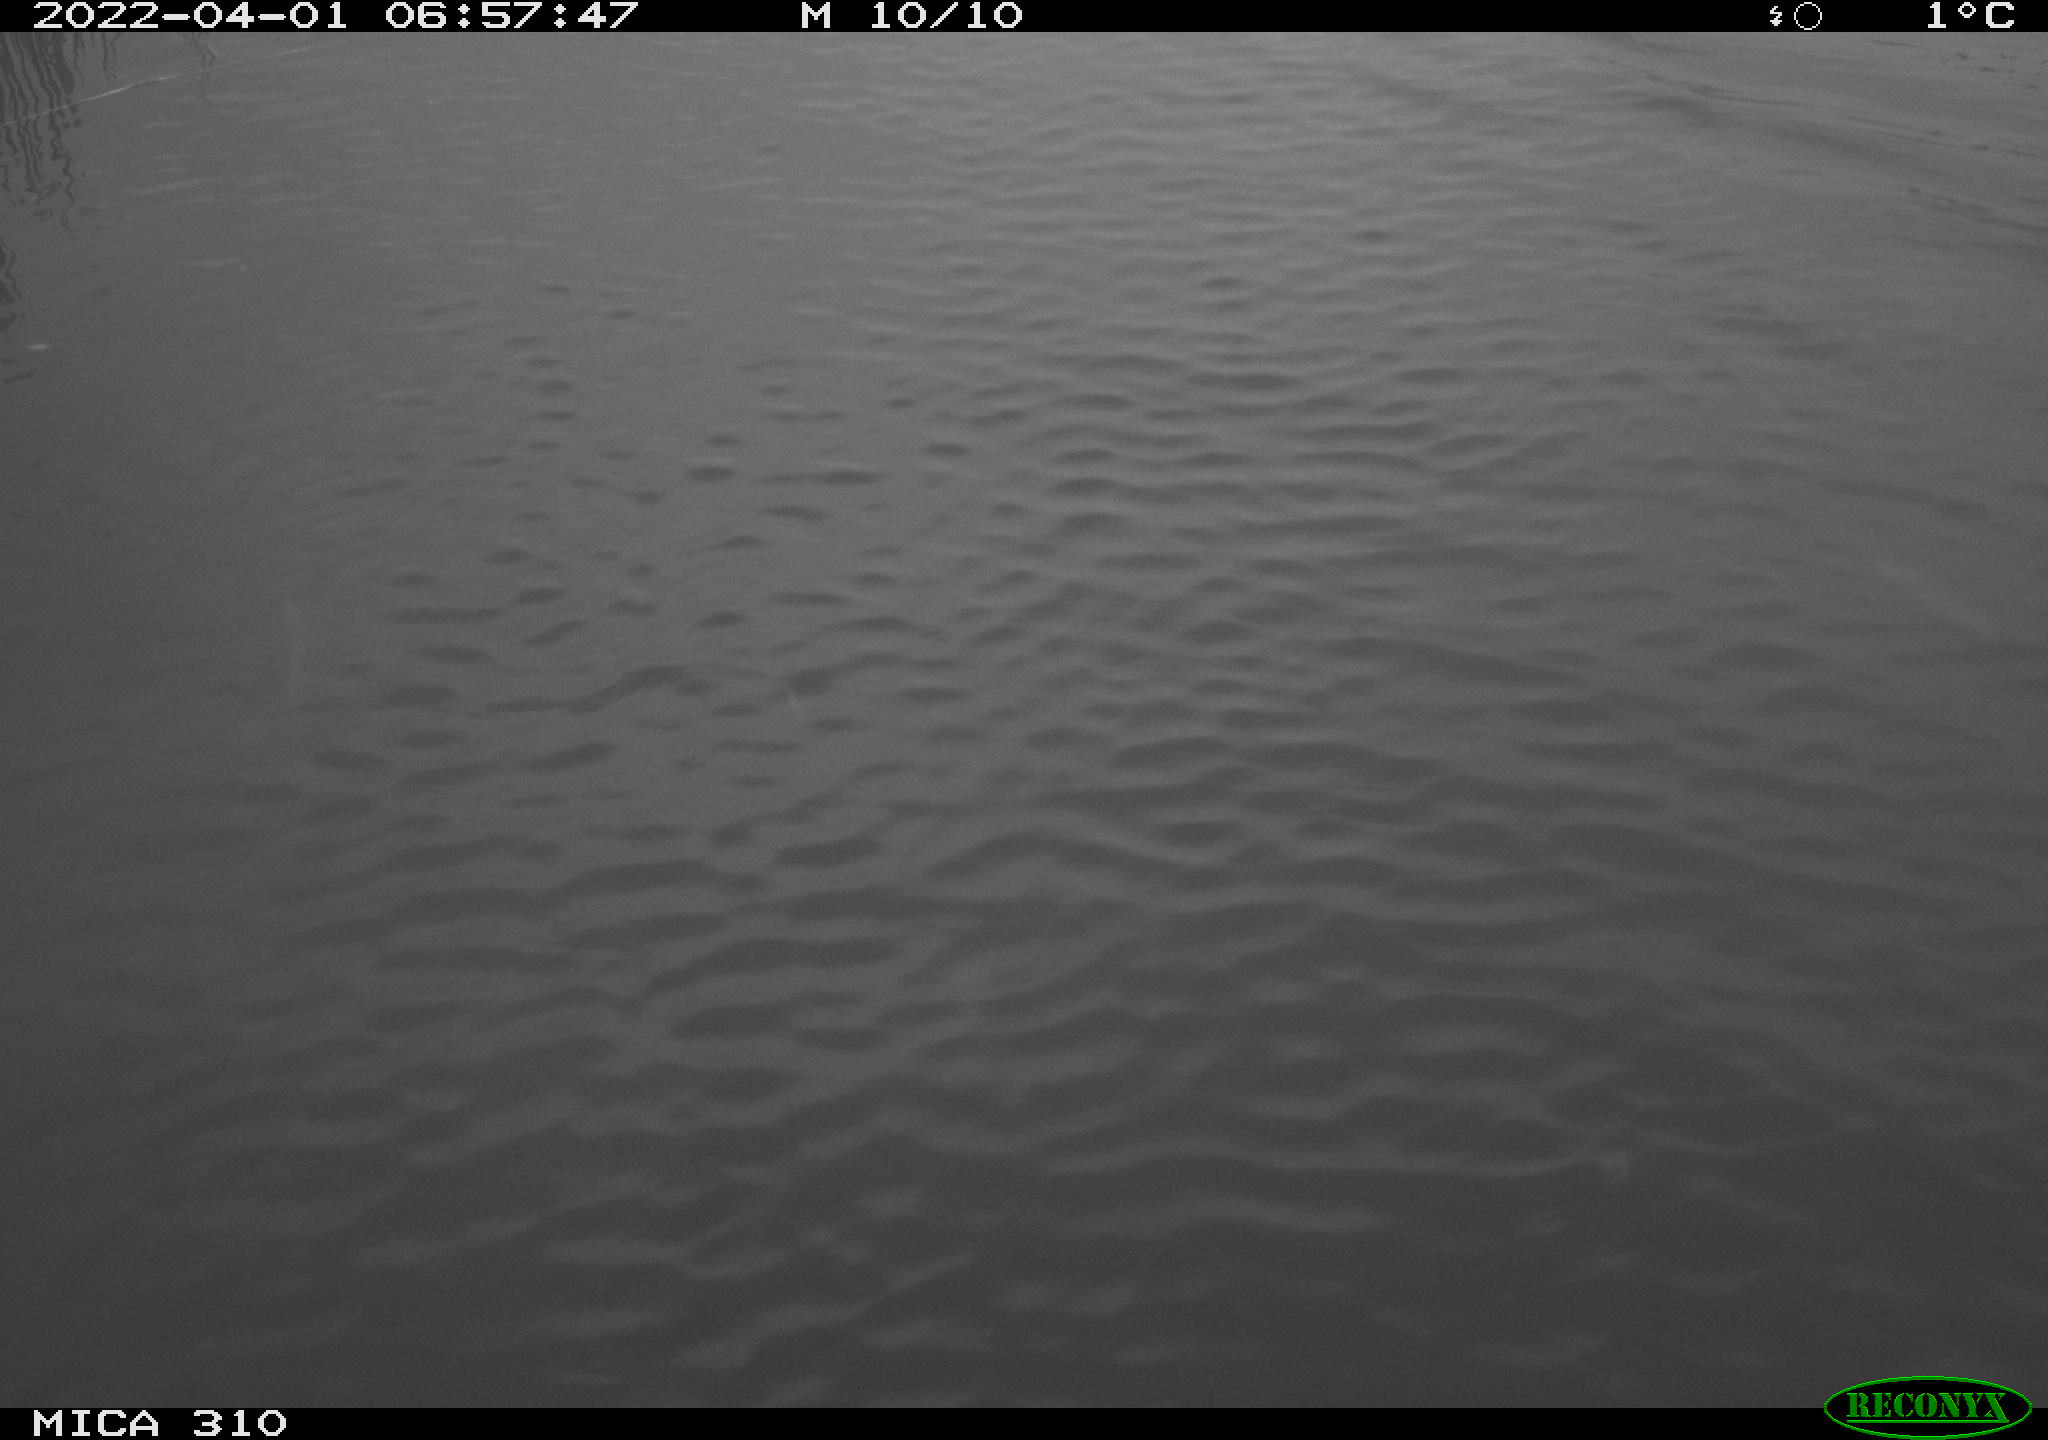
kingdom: Animalia
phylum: Chordata
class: Aves
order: Anseriformes
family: Anatidae
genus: Anas
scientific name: Anas platyrhynchos
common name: Mallard
